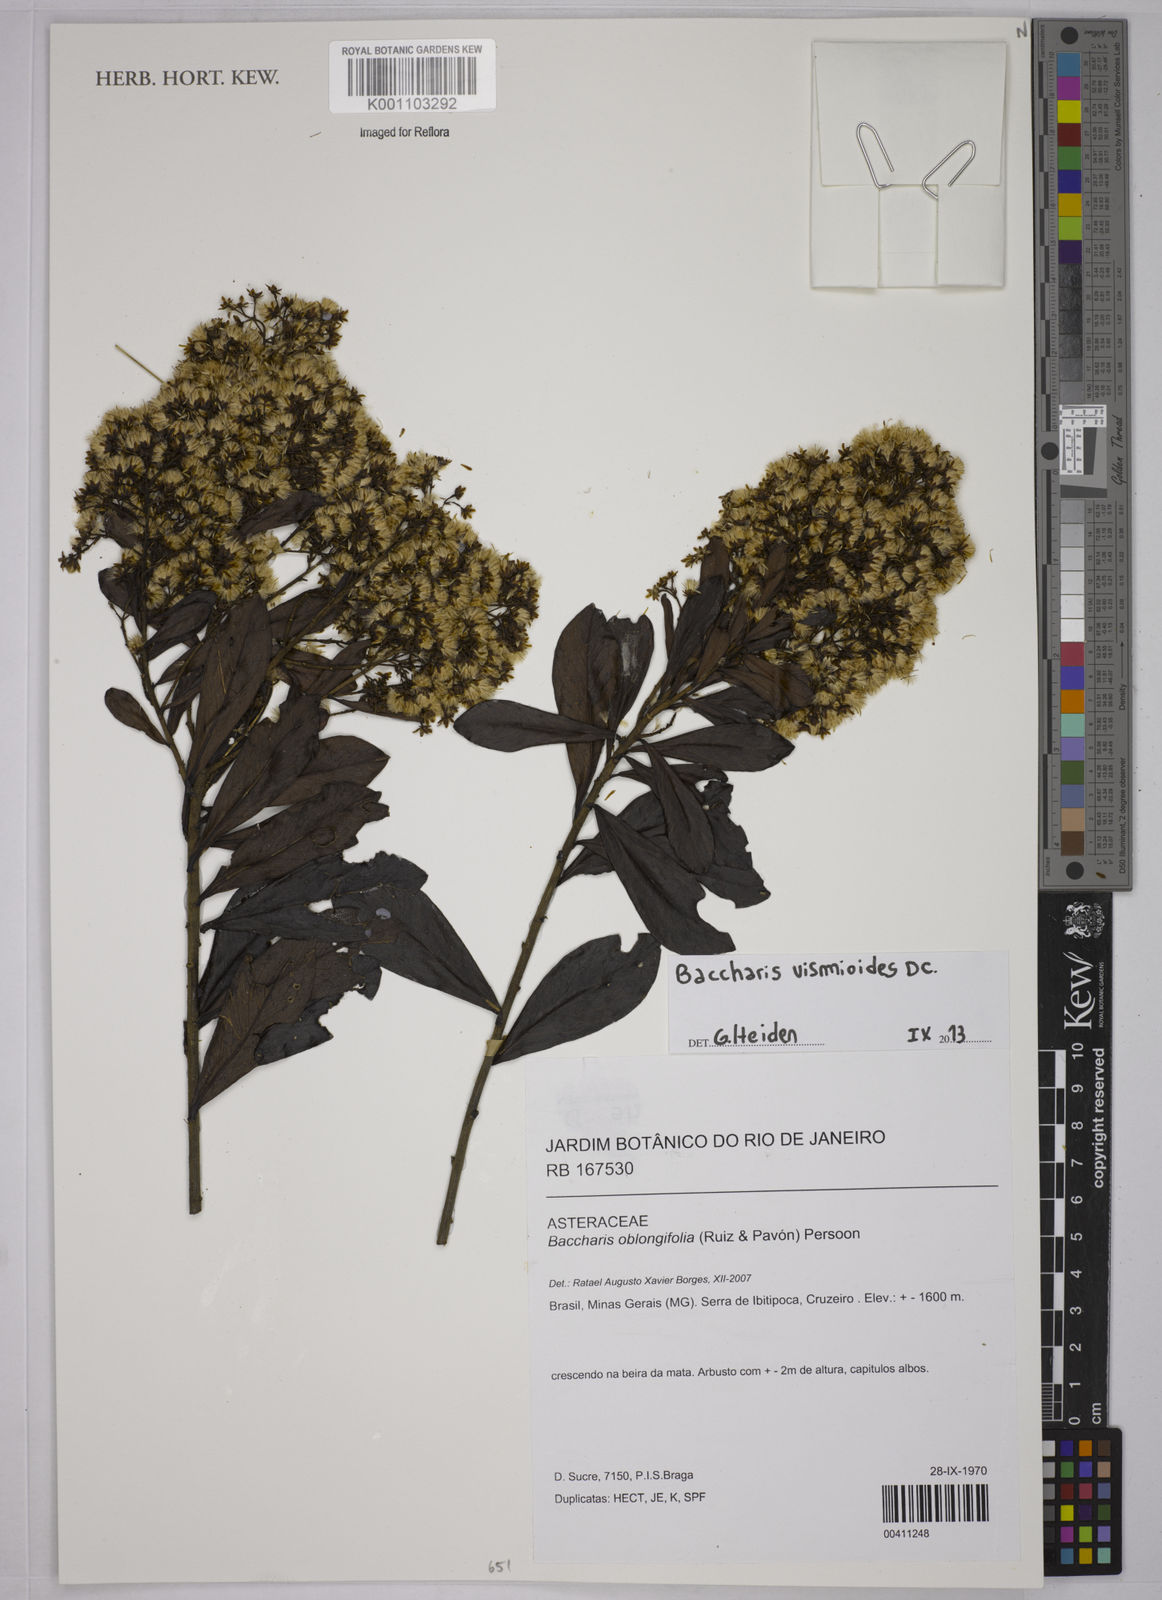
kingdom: Plantae
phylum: Tracheophyta
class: Magnoliopsida
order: Asterales
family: Asteraceae
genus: Baccharis
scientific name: Baccharis vismioides
